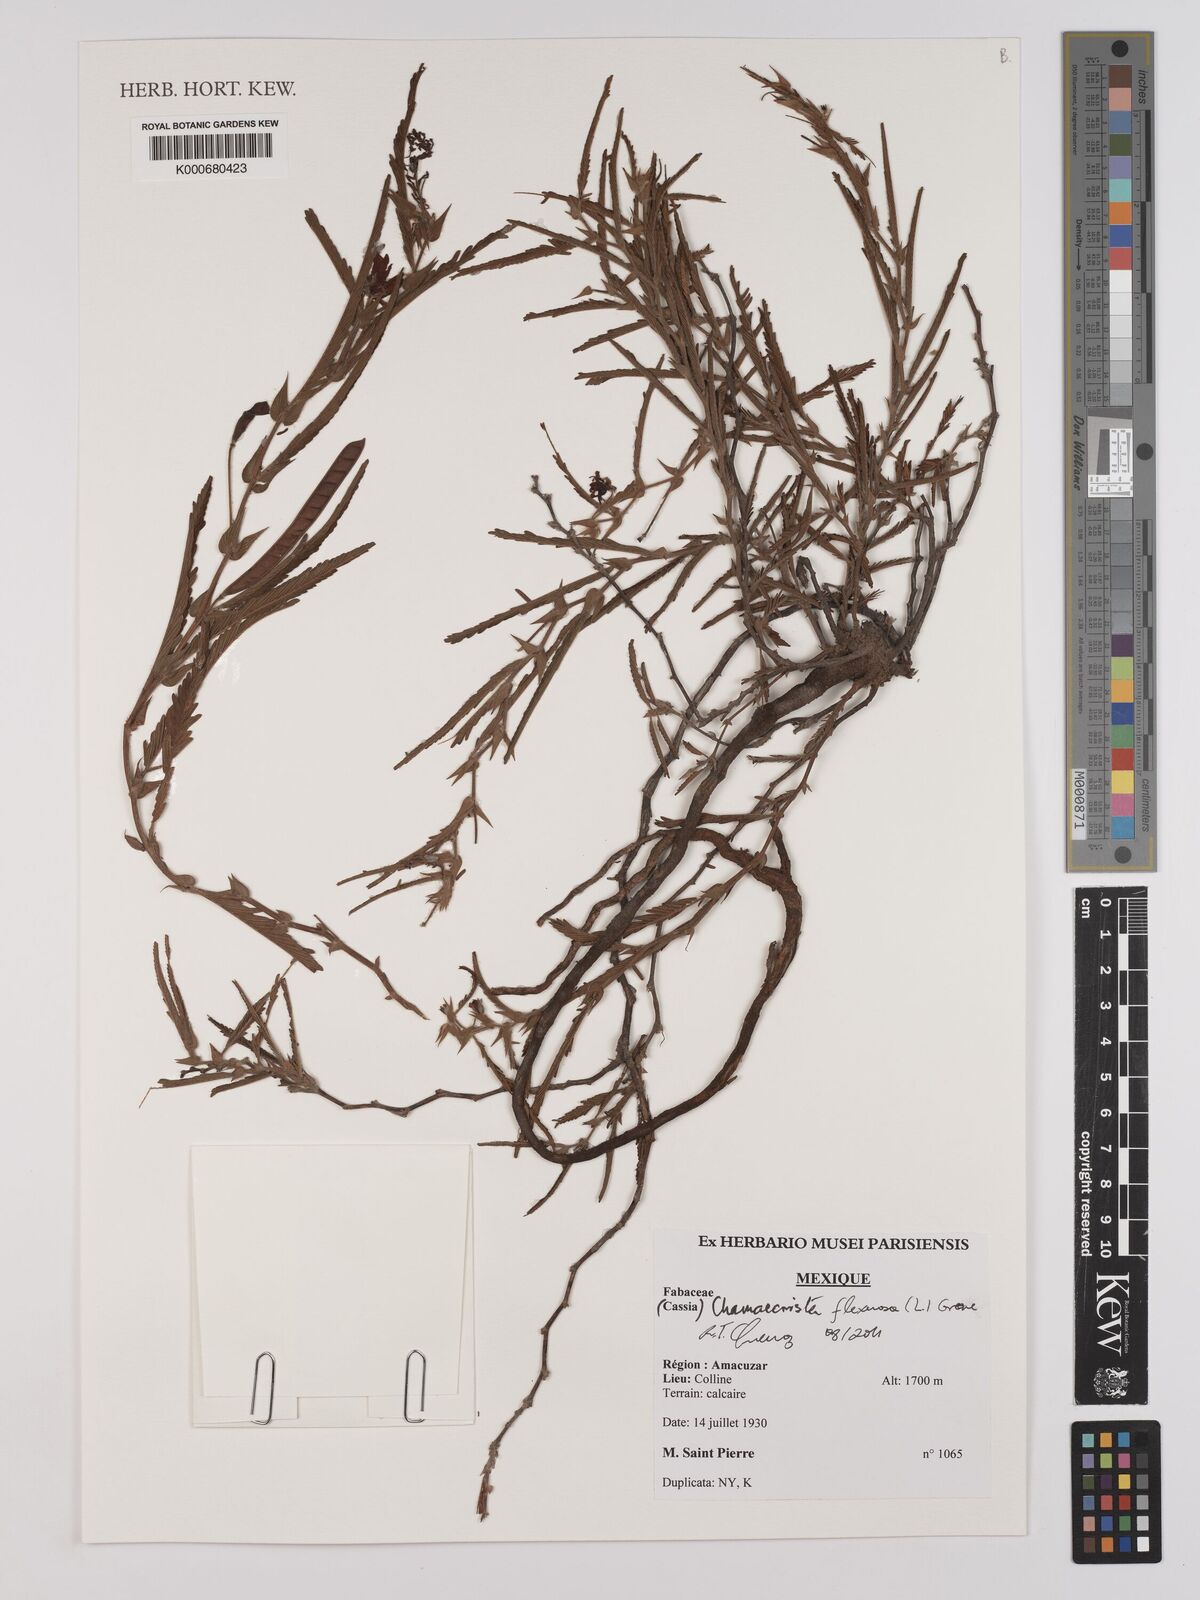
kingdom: Plantae
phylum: Tracheophyta
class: Magnoliopsida
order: Fabales
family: Fabaceae
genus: Chamaecrista
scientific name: Chamaecrista
